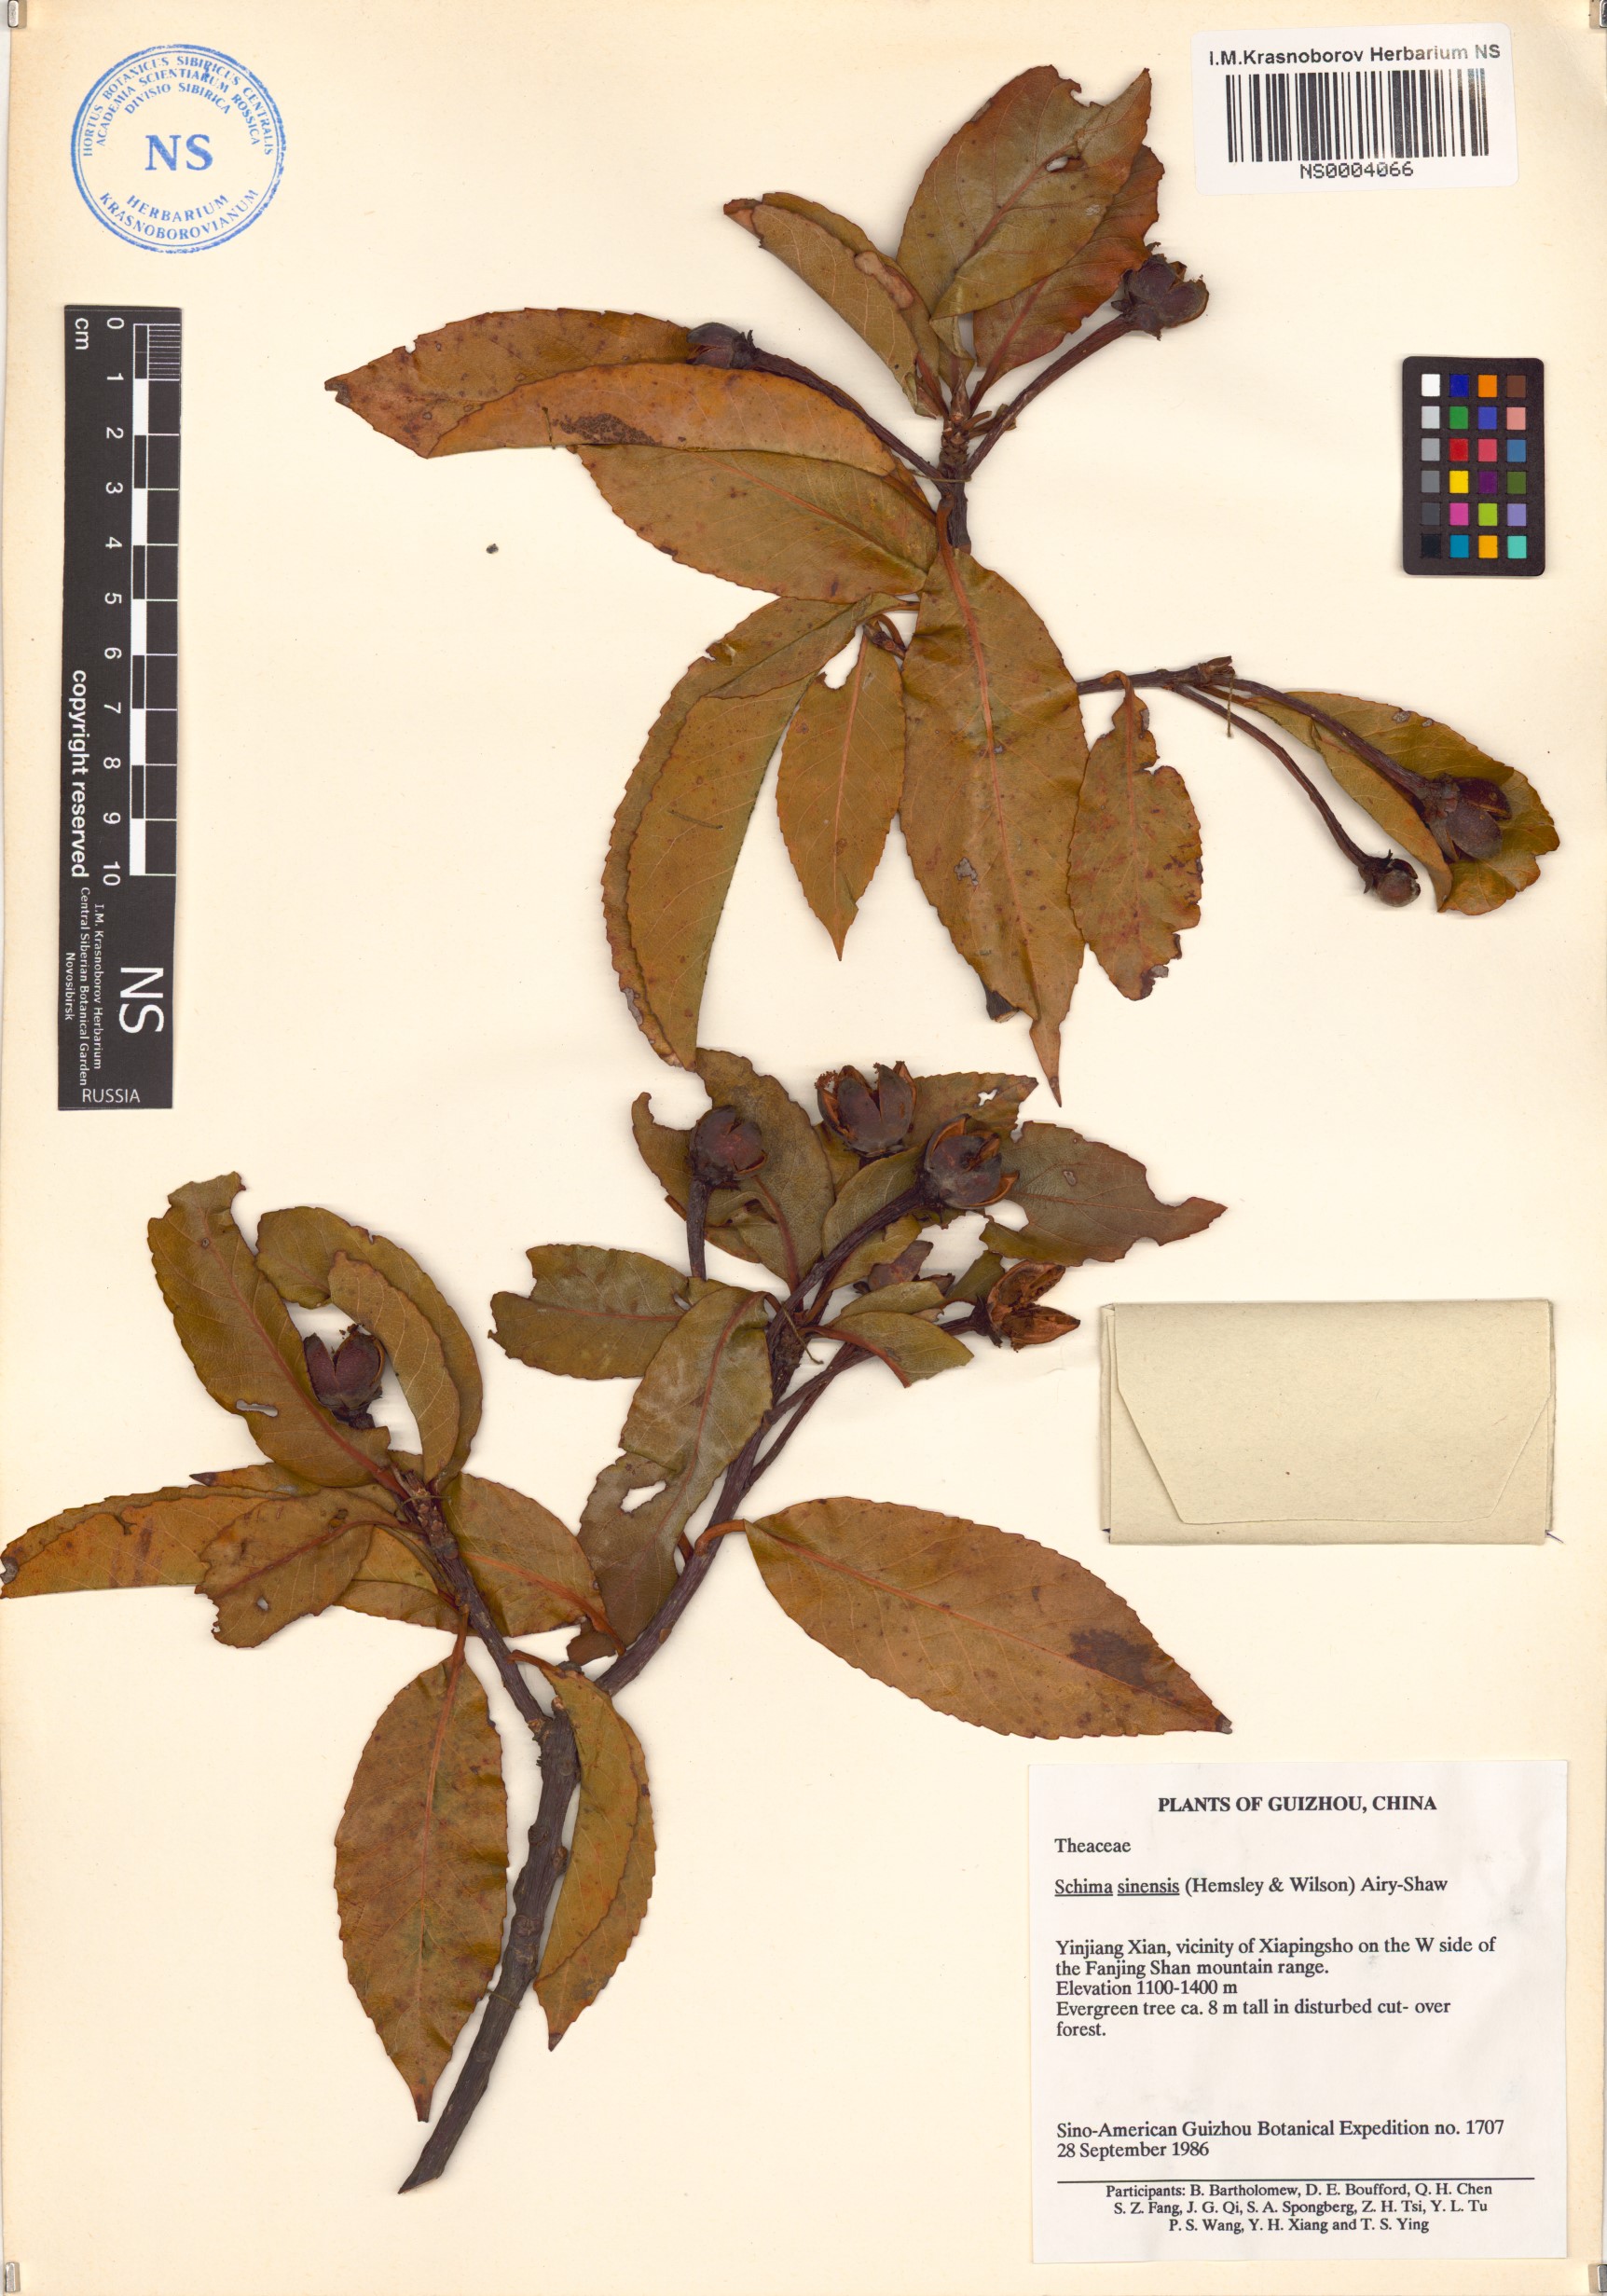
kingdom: Plantae
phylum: Tracheophyta
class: Magnoliopsida
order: Ericales
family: Theaceae
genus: Schima
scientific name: Schima sinensis
